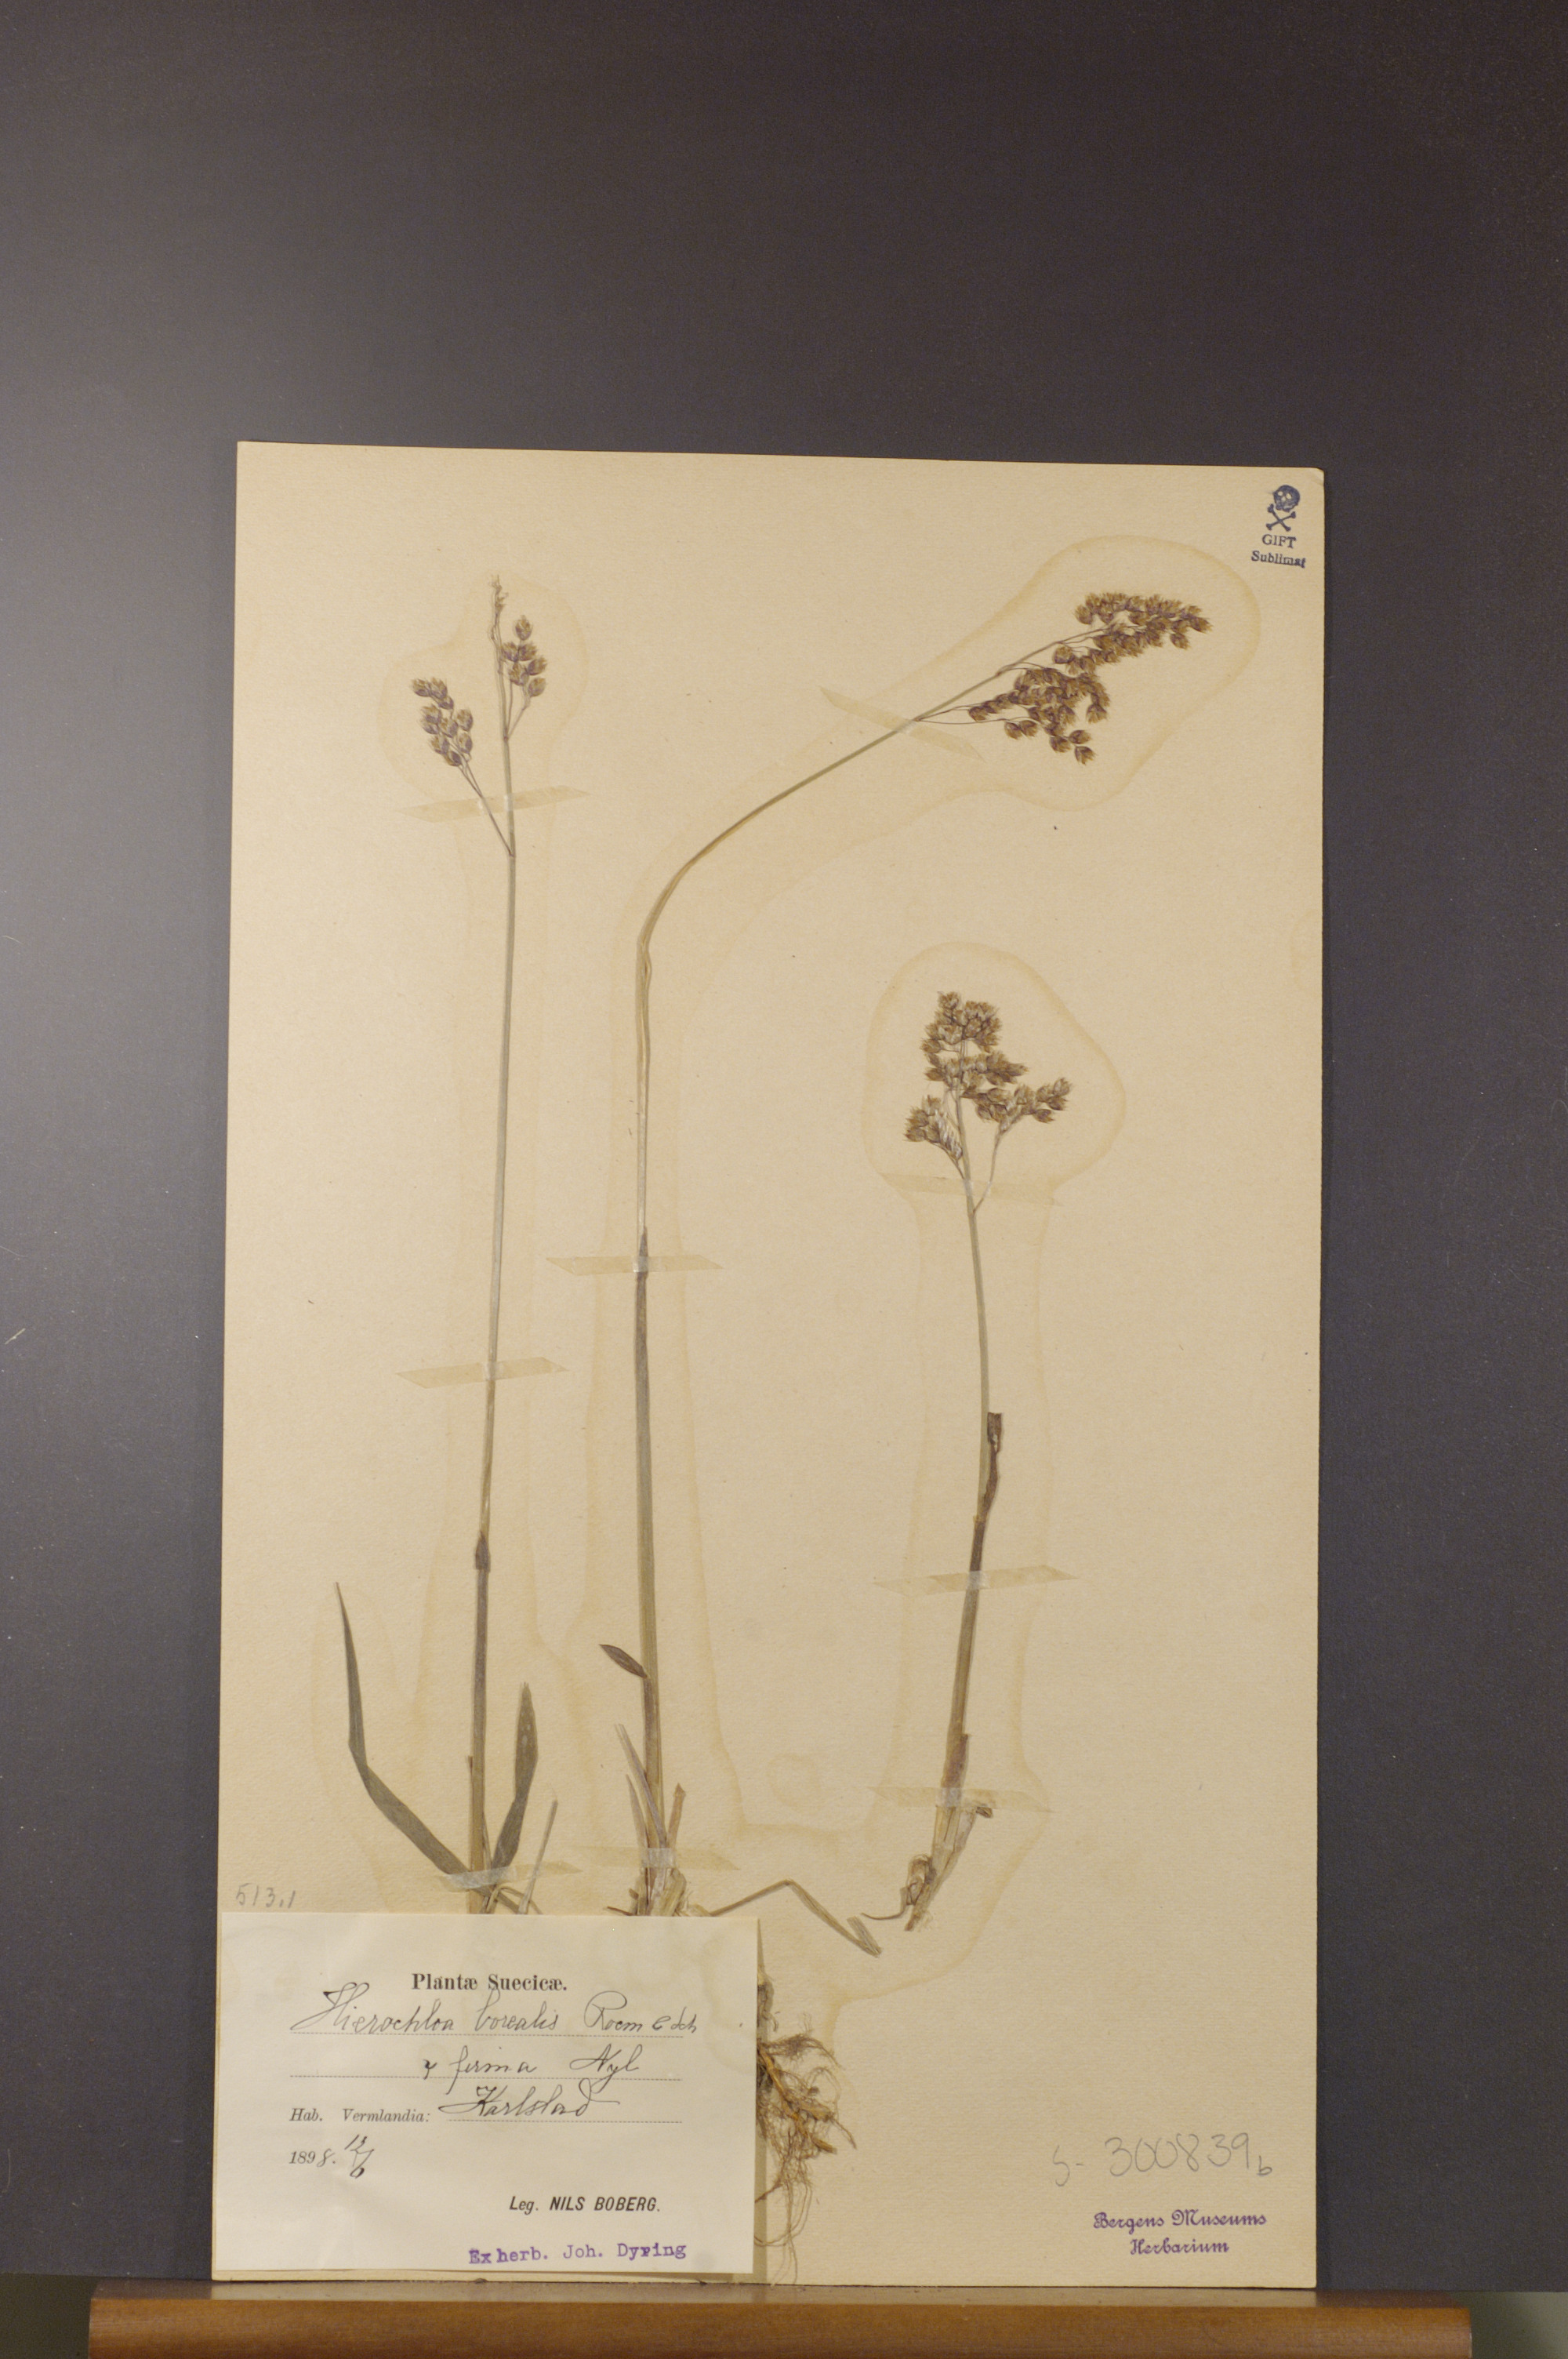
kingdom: Plantae
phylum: Tracheophyta
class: Liliopsida
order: Poales
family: Poaceae
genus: Anthoxanthum
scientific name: Anthoxanthum nitens
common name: Holy grass
